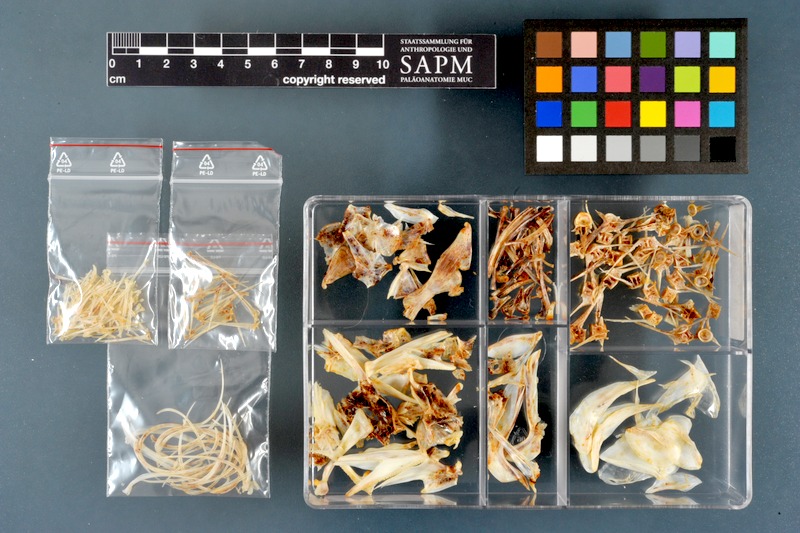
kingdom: Animalia
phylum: Chordata
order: Perciformes
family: Centrarchidae
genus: Micropterus
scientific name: Micropterus dolomieu
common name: Smallmouth bass
